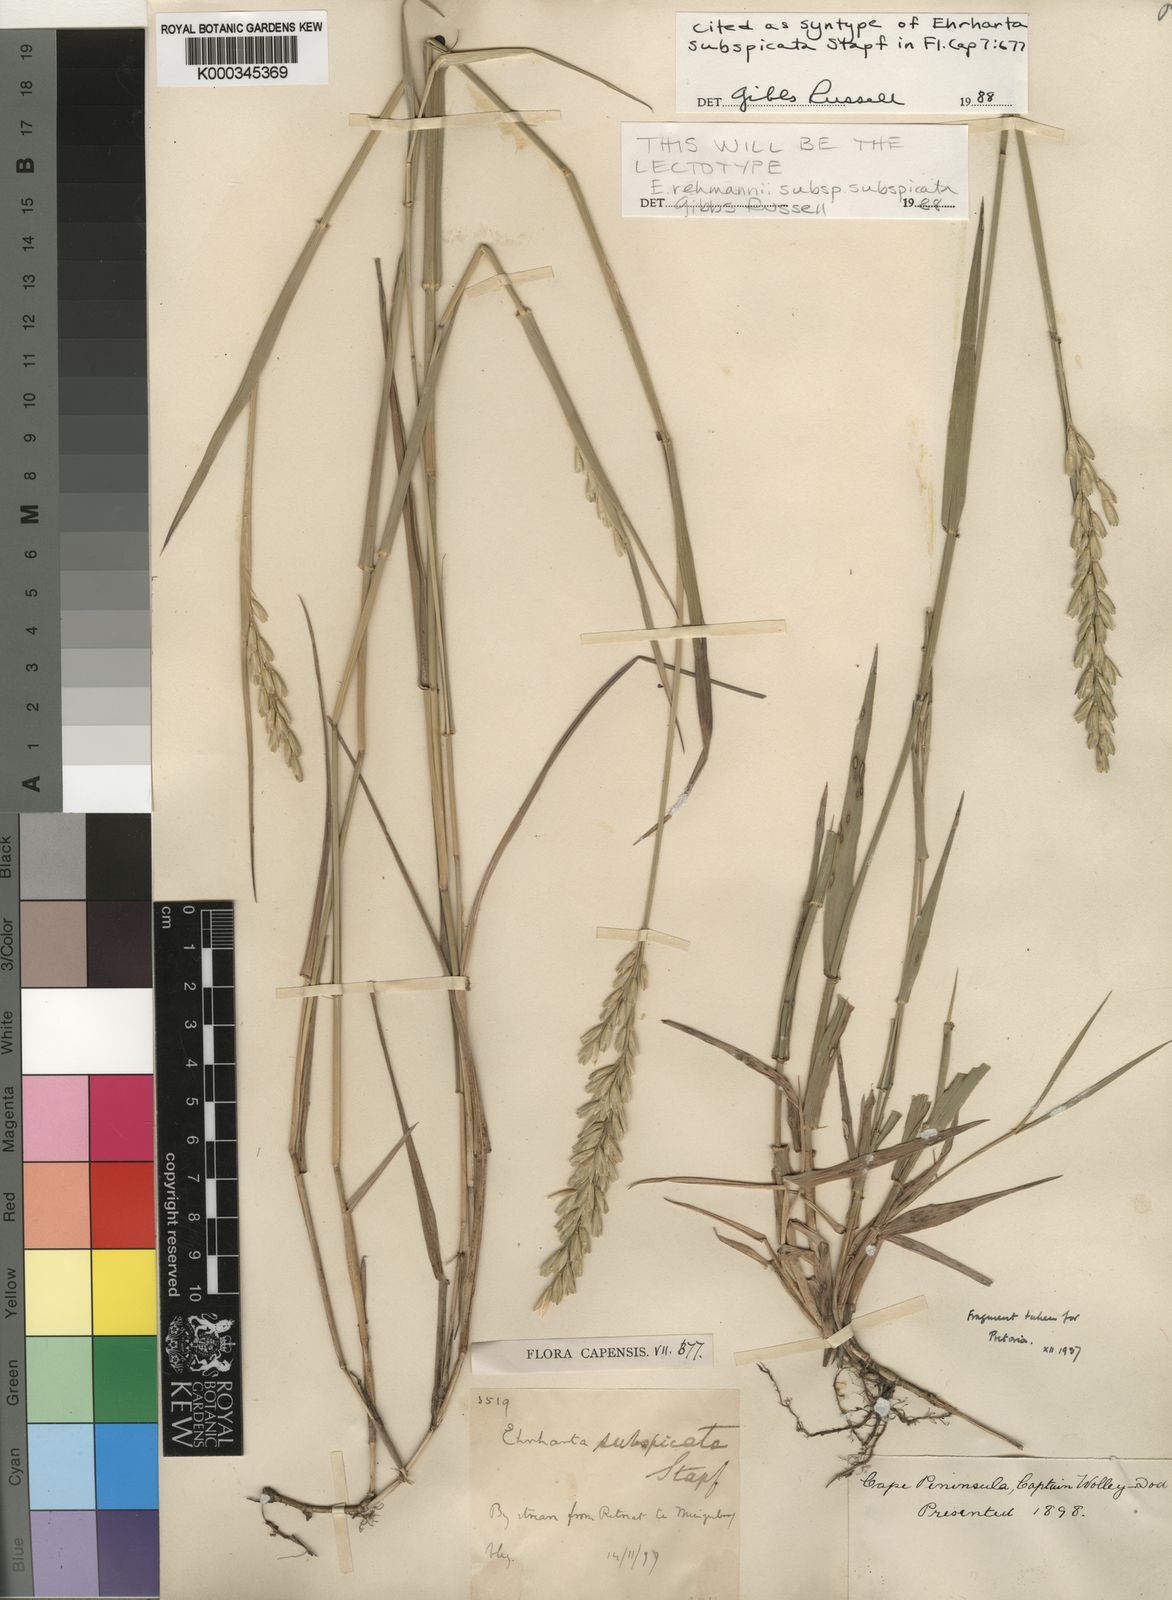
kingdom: Plantae
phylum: Tracheophyta
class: Liliopsida
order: Poales
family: Poaceae
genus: Ehrharta
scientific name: Ehrharta rehmannii
